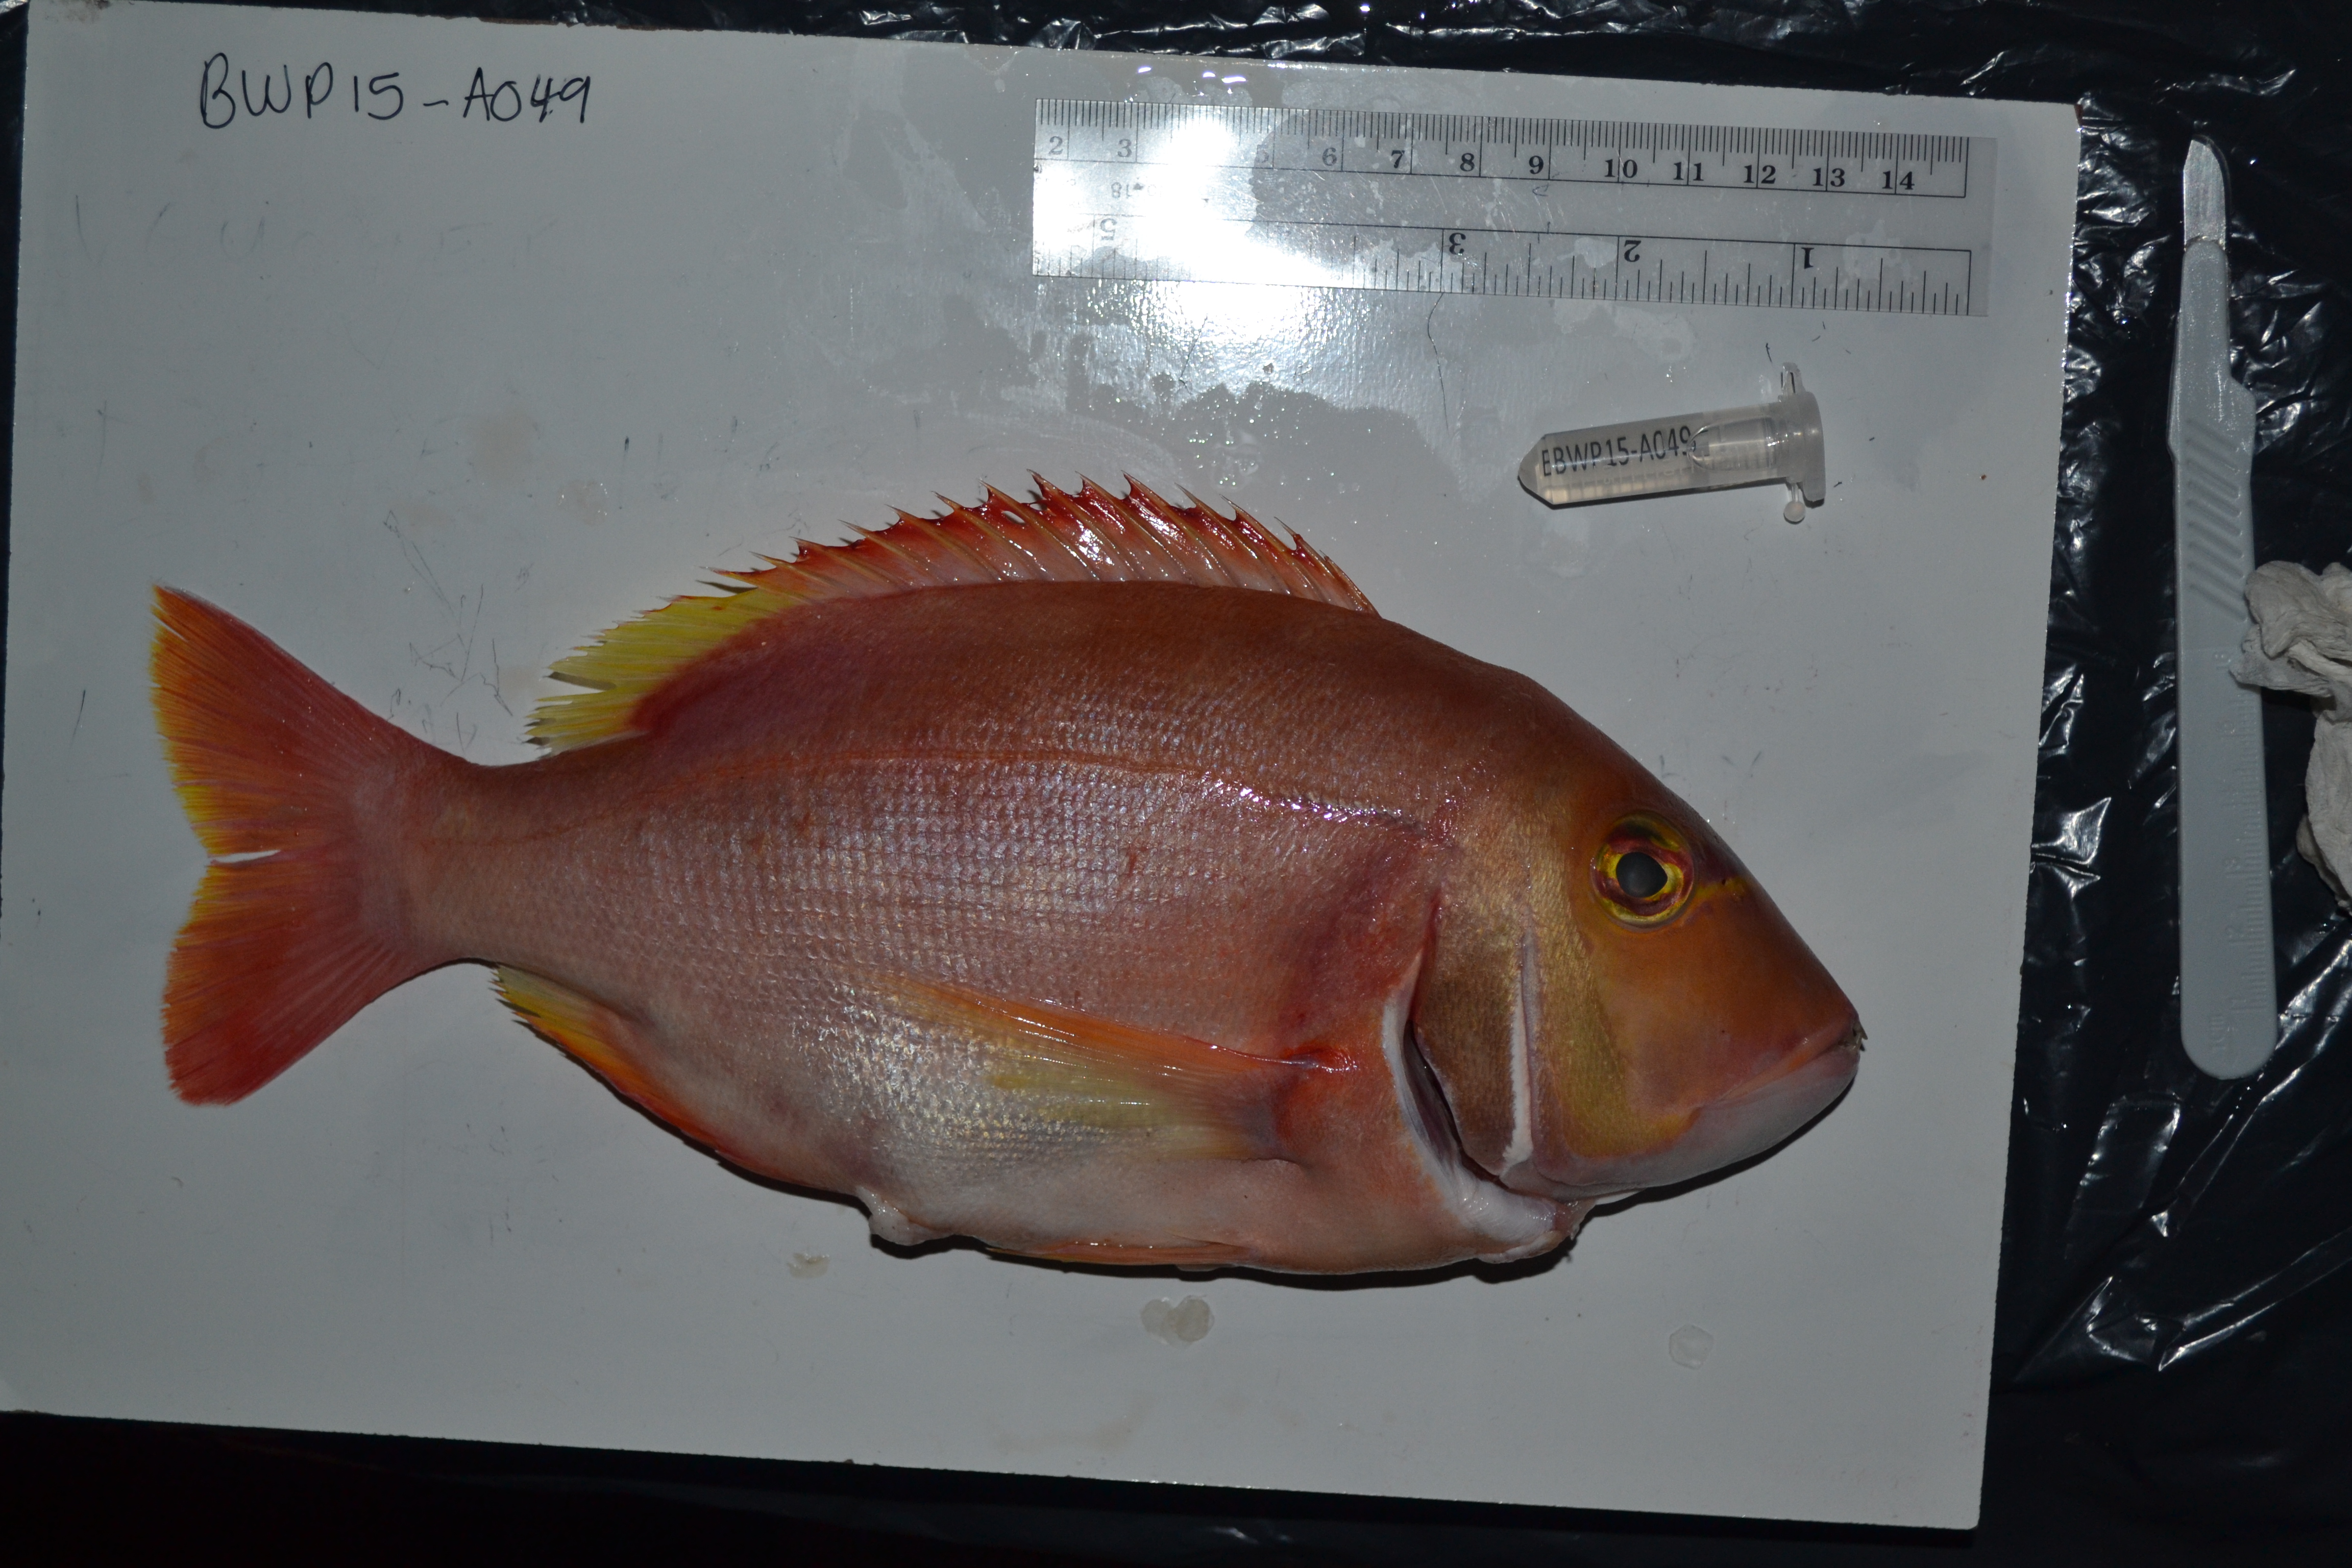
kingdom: Animalia
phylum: Chordata
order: Perciformes
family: Sparidae
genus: Porcostoma
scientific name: Porcostoma dentata
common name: Dane
